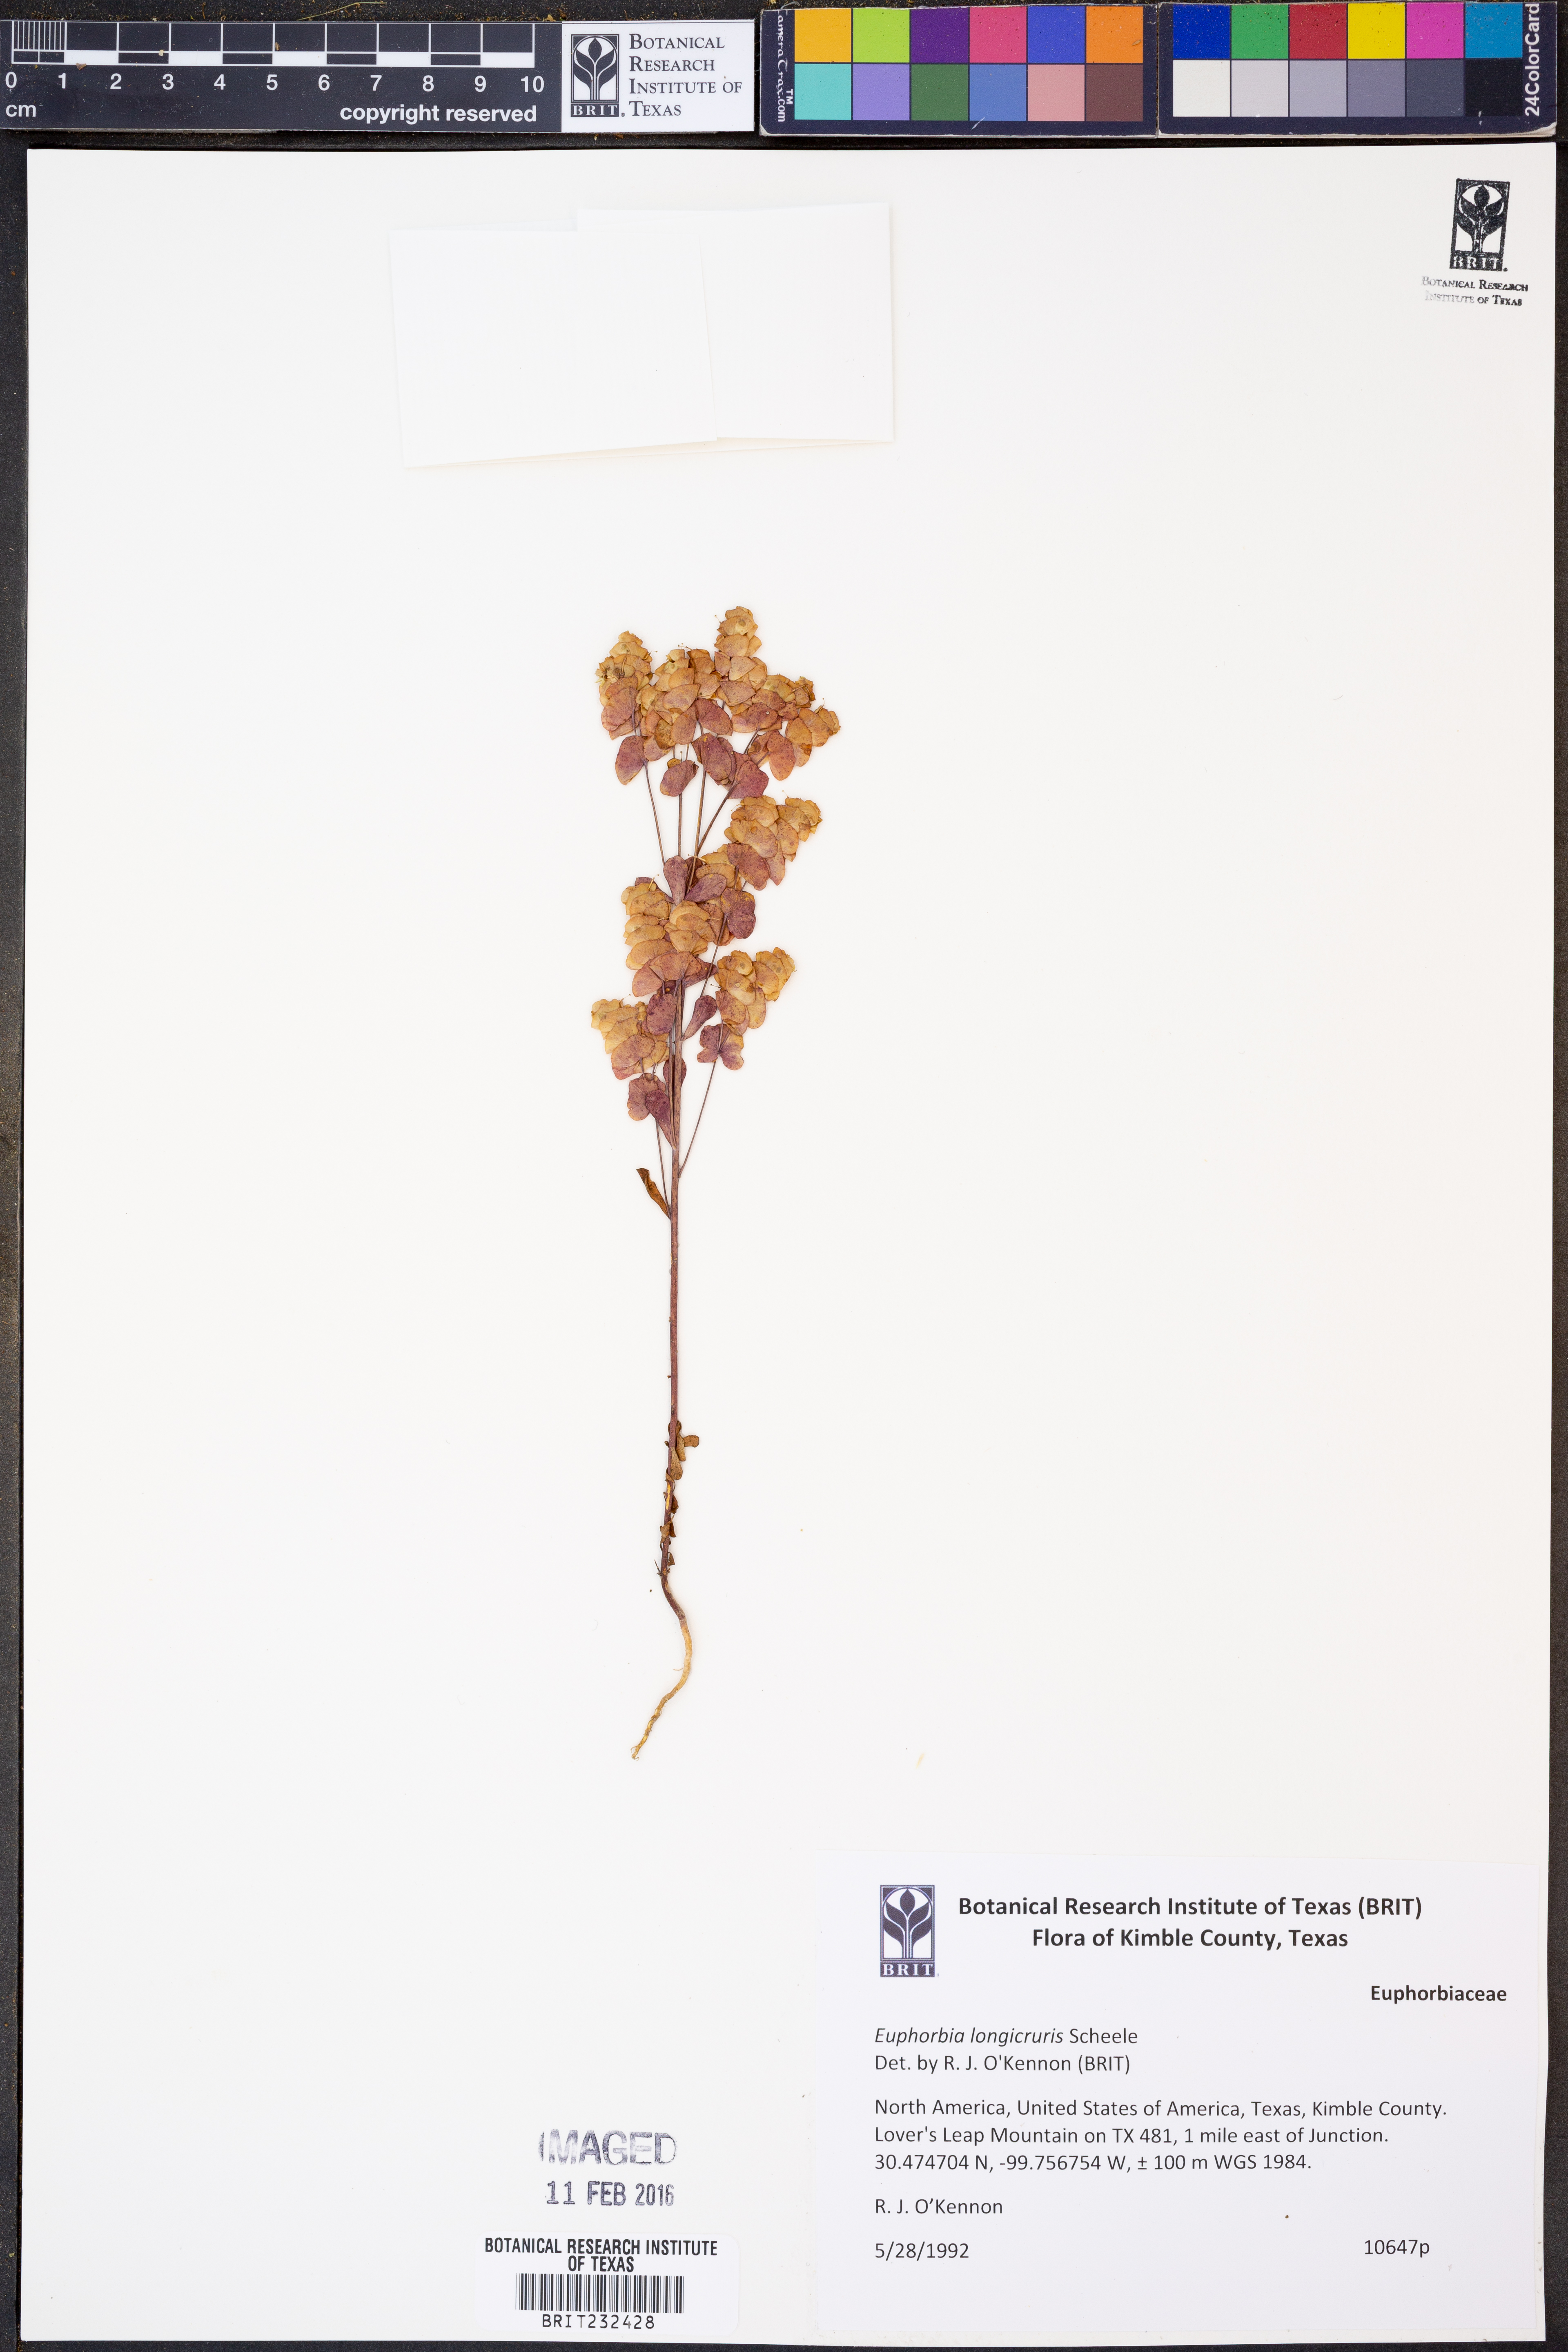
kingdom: Plantae
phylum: Tracheophyta
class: Magnoliopsida
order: Malpighiales
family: Euphorbiaceae
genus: Euphorbia
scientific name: Euphorbia longicruris
